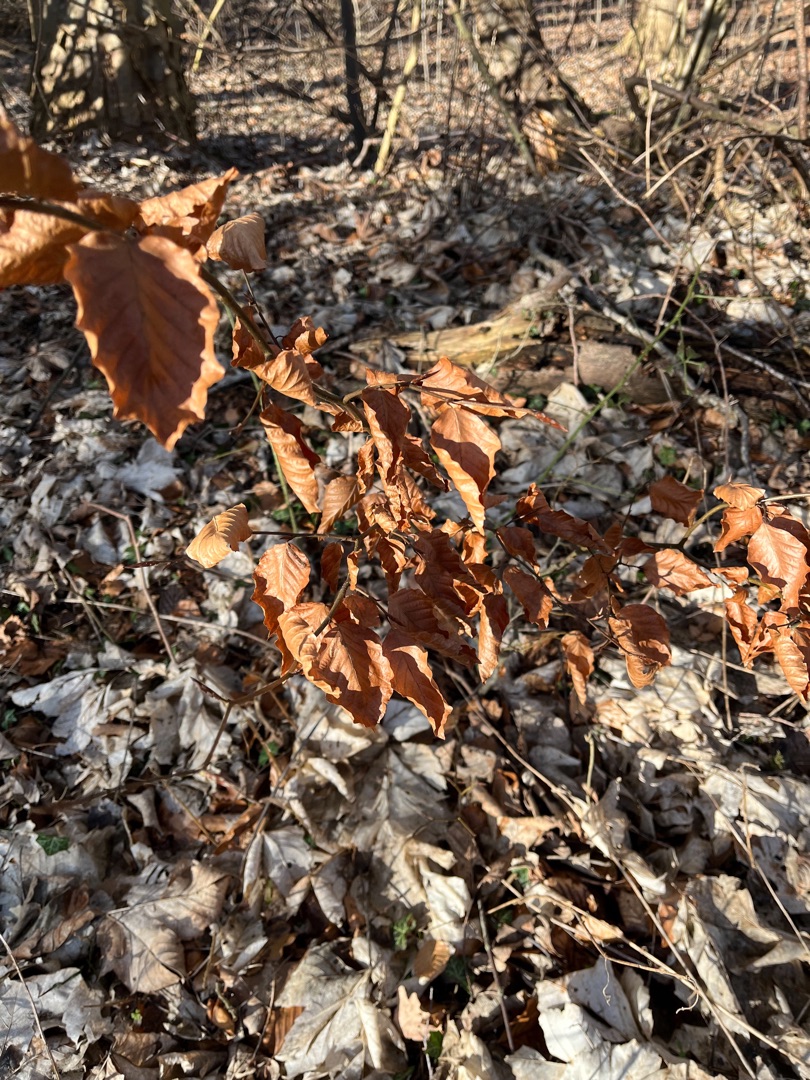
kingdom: Plantae
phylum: Tracheophyta
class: Magnoliopsida
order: Fagales
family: Fagaceae
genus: Fagus
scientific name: Fagus sylvatica
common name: Bøg
